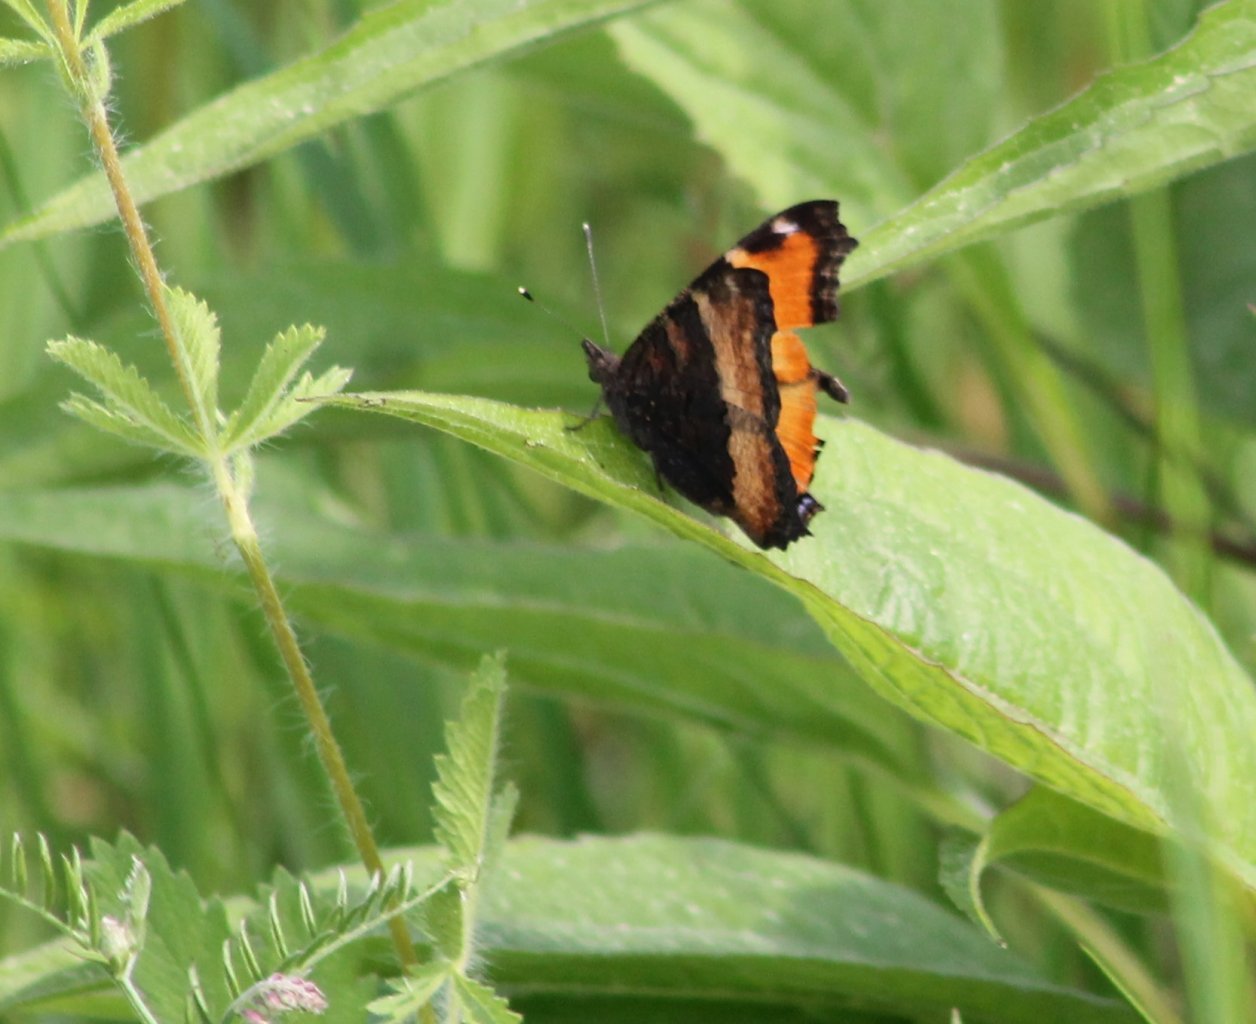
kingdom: Animalia
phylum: Arthropoda
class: Insecta
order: Lepidoptera
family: Nymphalidae
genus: Aglais
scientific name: Aglais milberti
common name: Milbert's Tortoiseshell
